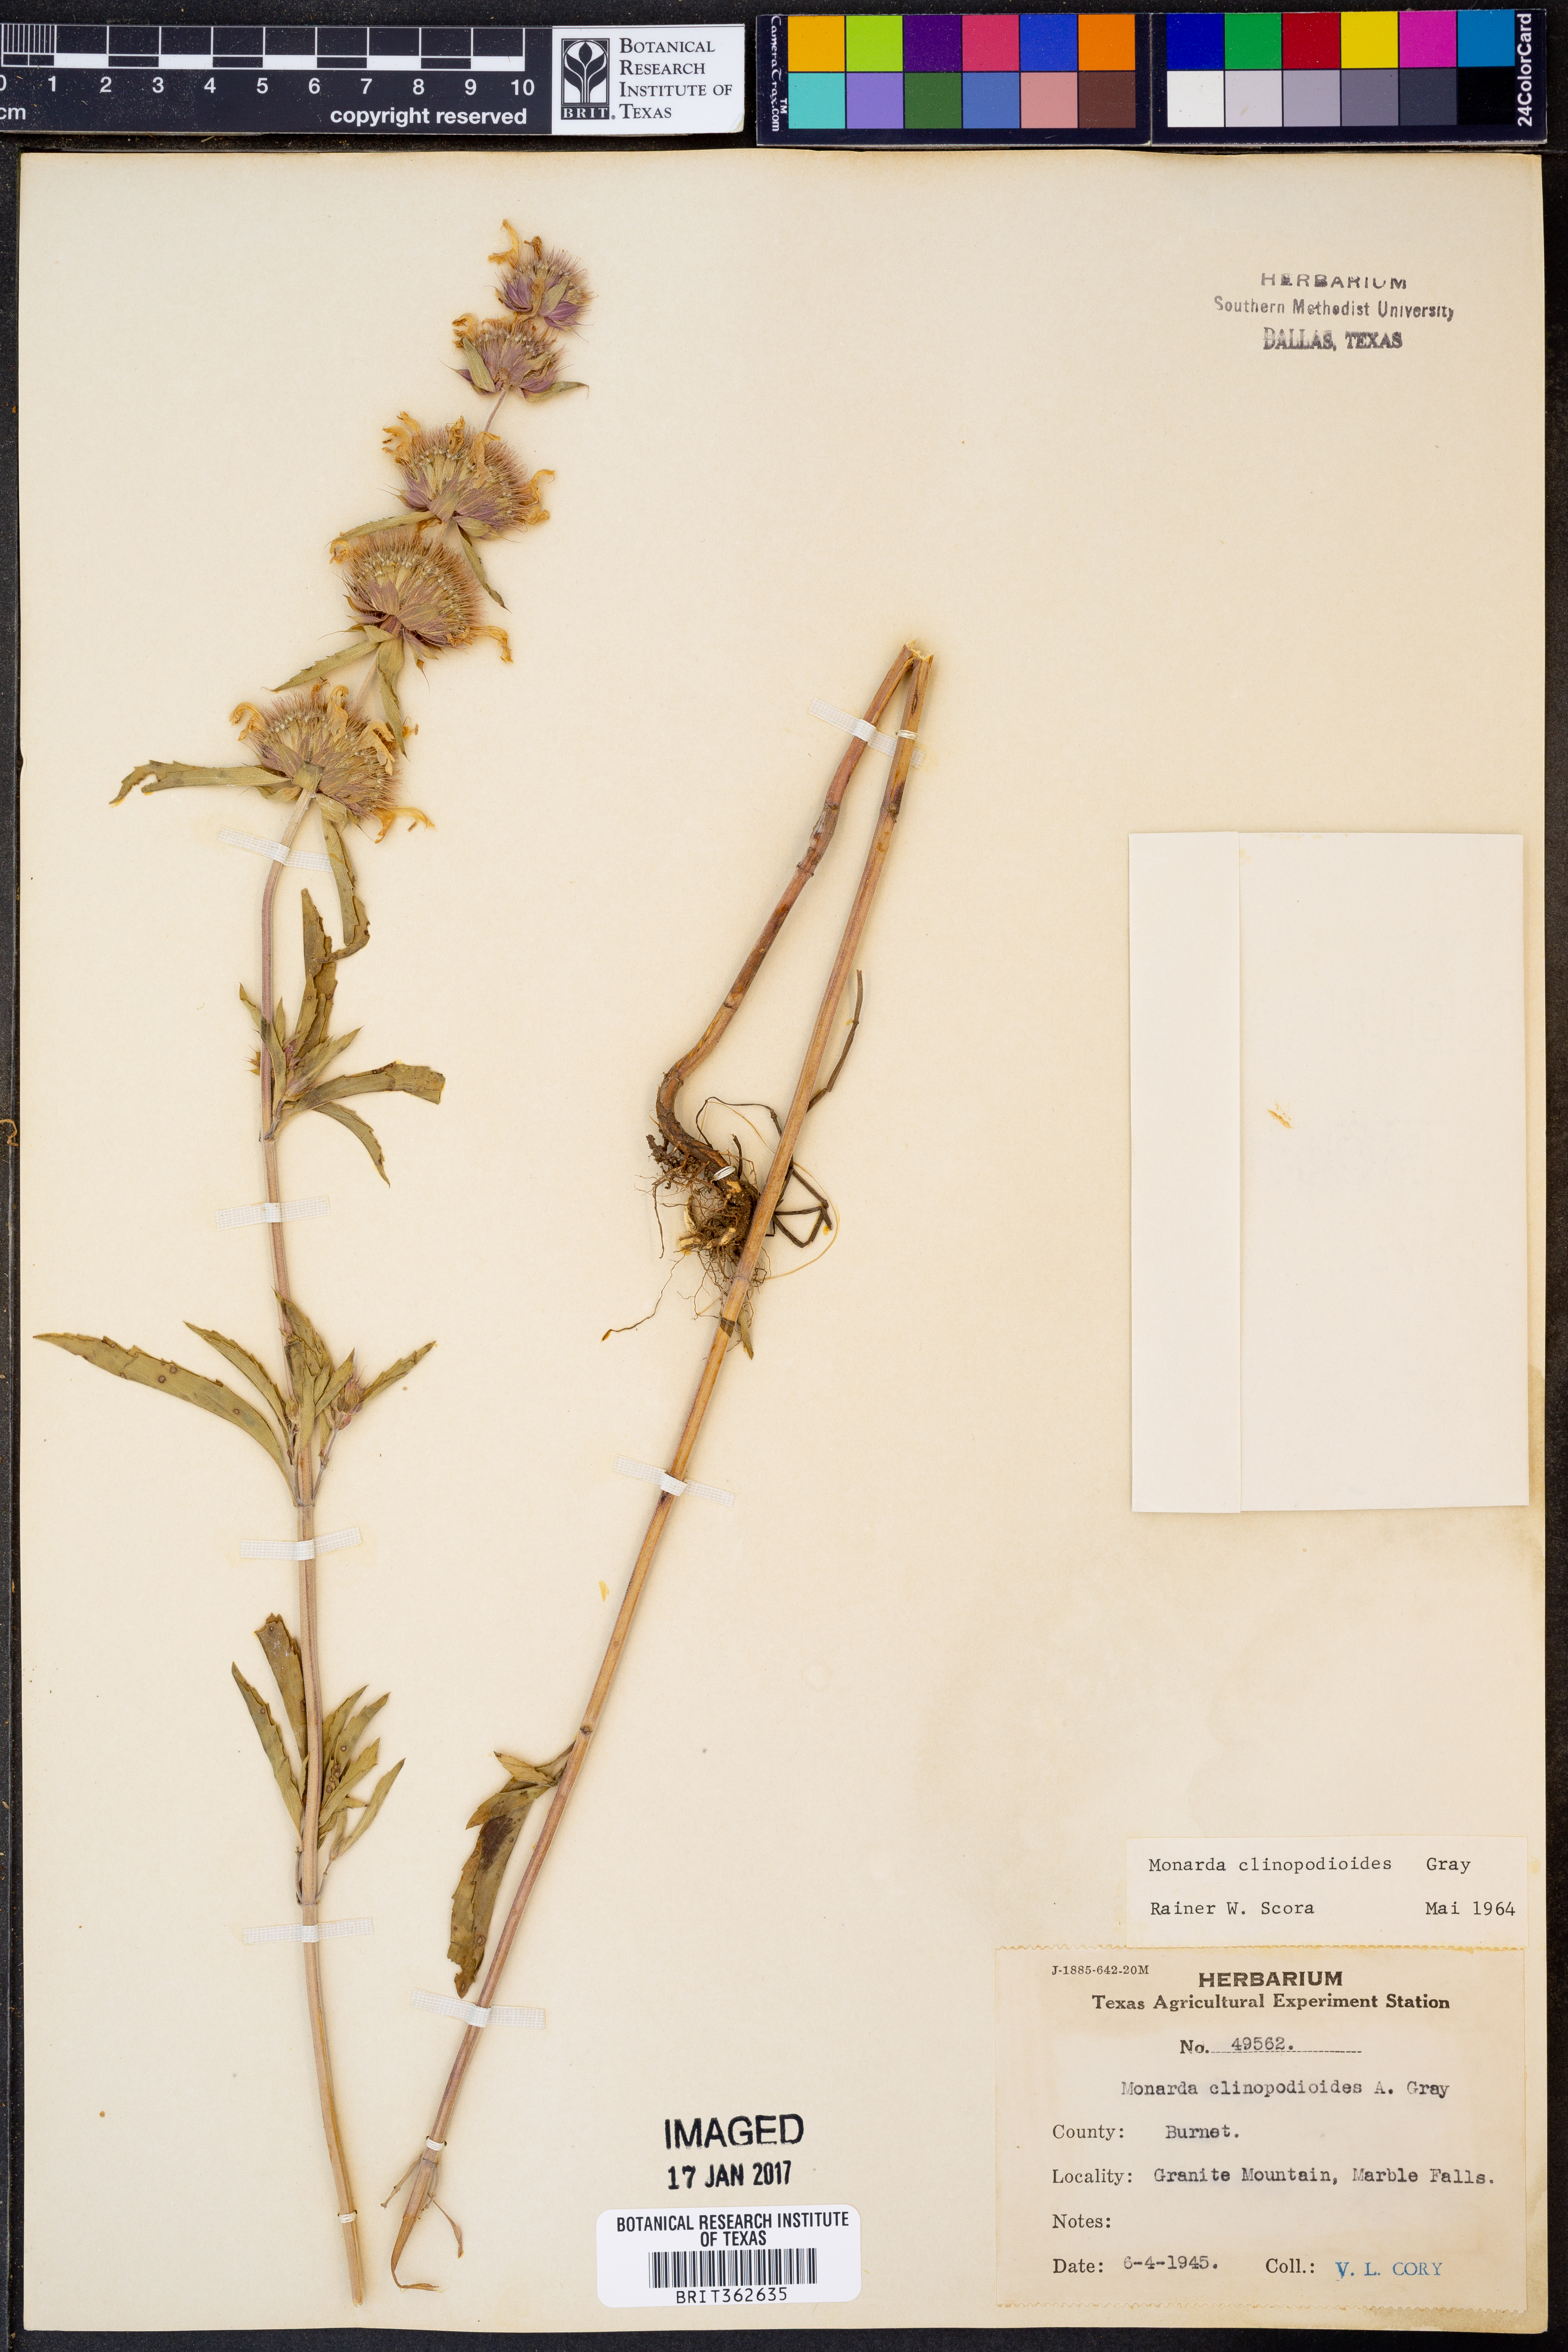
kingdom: Plantae
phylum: Tracheophyta
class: Magnoliopsida
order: Lamiales
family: Lamiaceae
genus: Monarda
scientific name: Monarda clinopodioides
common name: Basil beebalm
